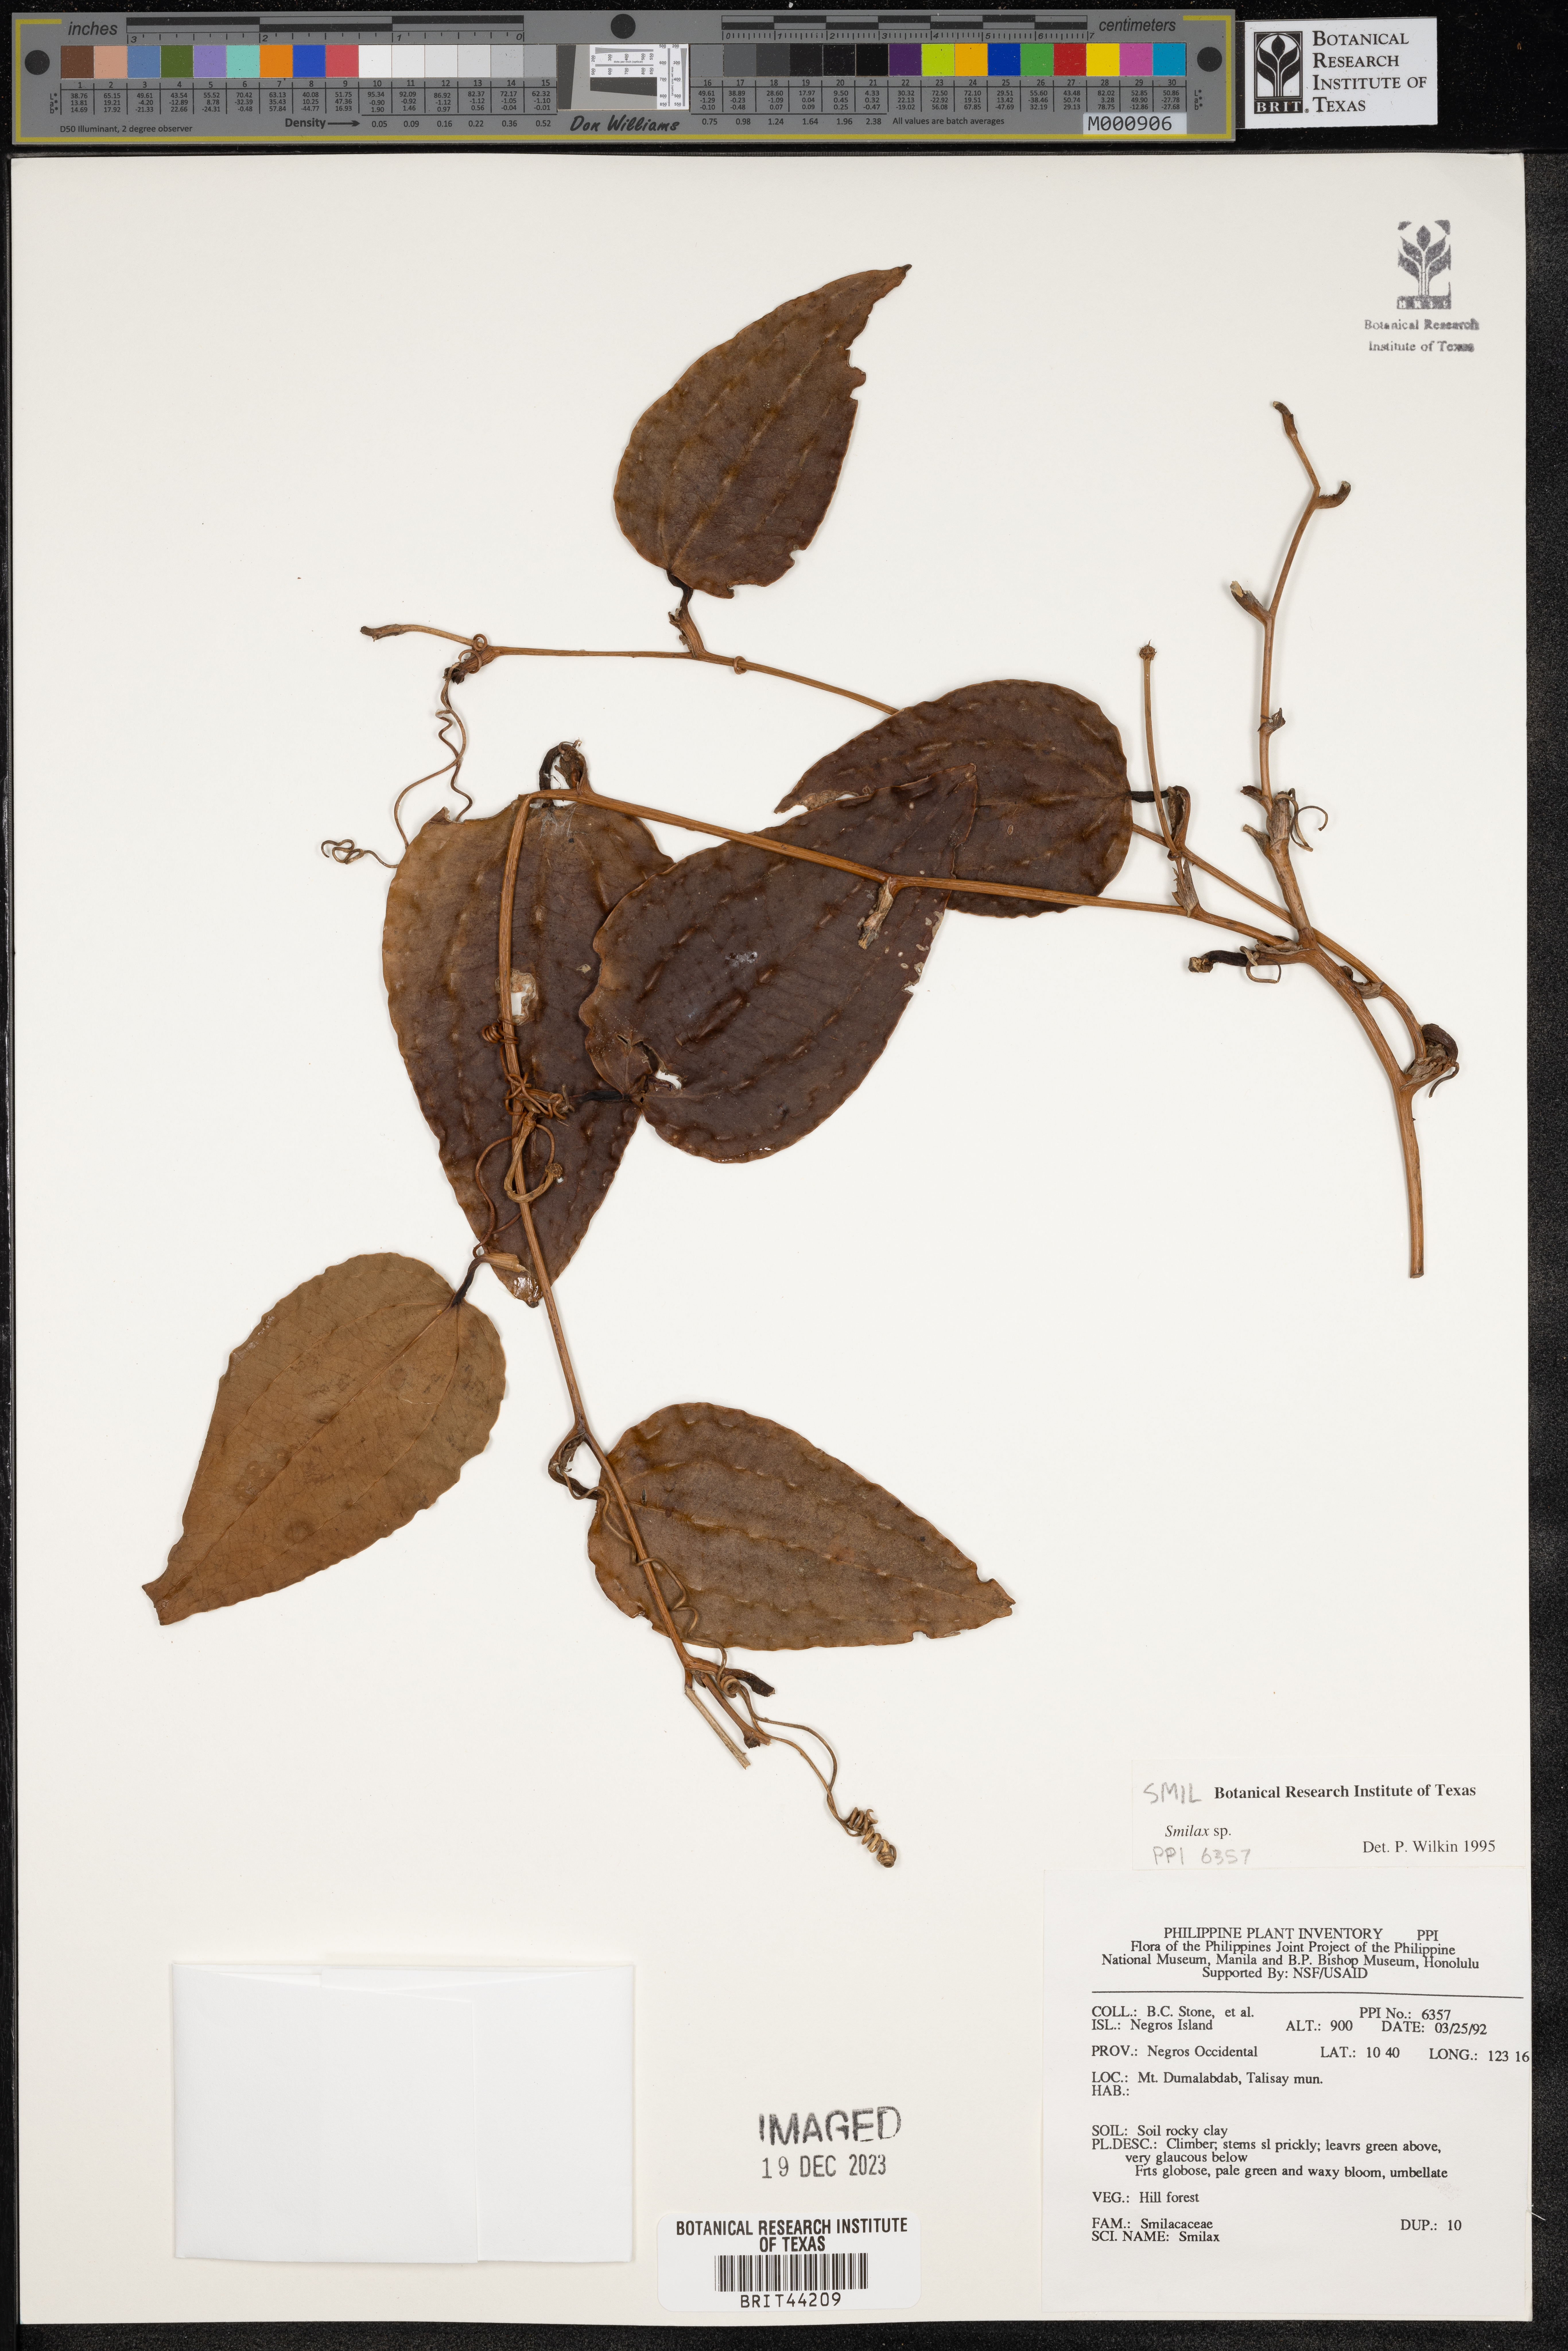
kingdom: Plantae
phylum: Tracheophyta
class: Liliopsida
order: Liliales
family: Smilacaceae
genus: Smilax
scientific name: Smilax
